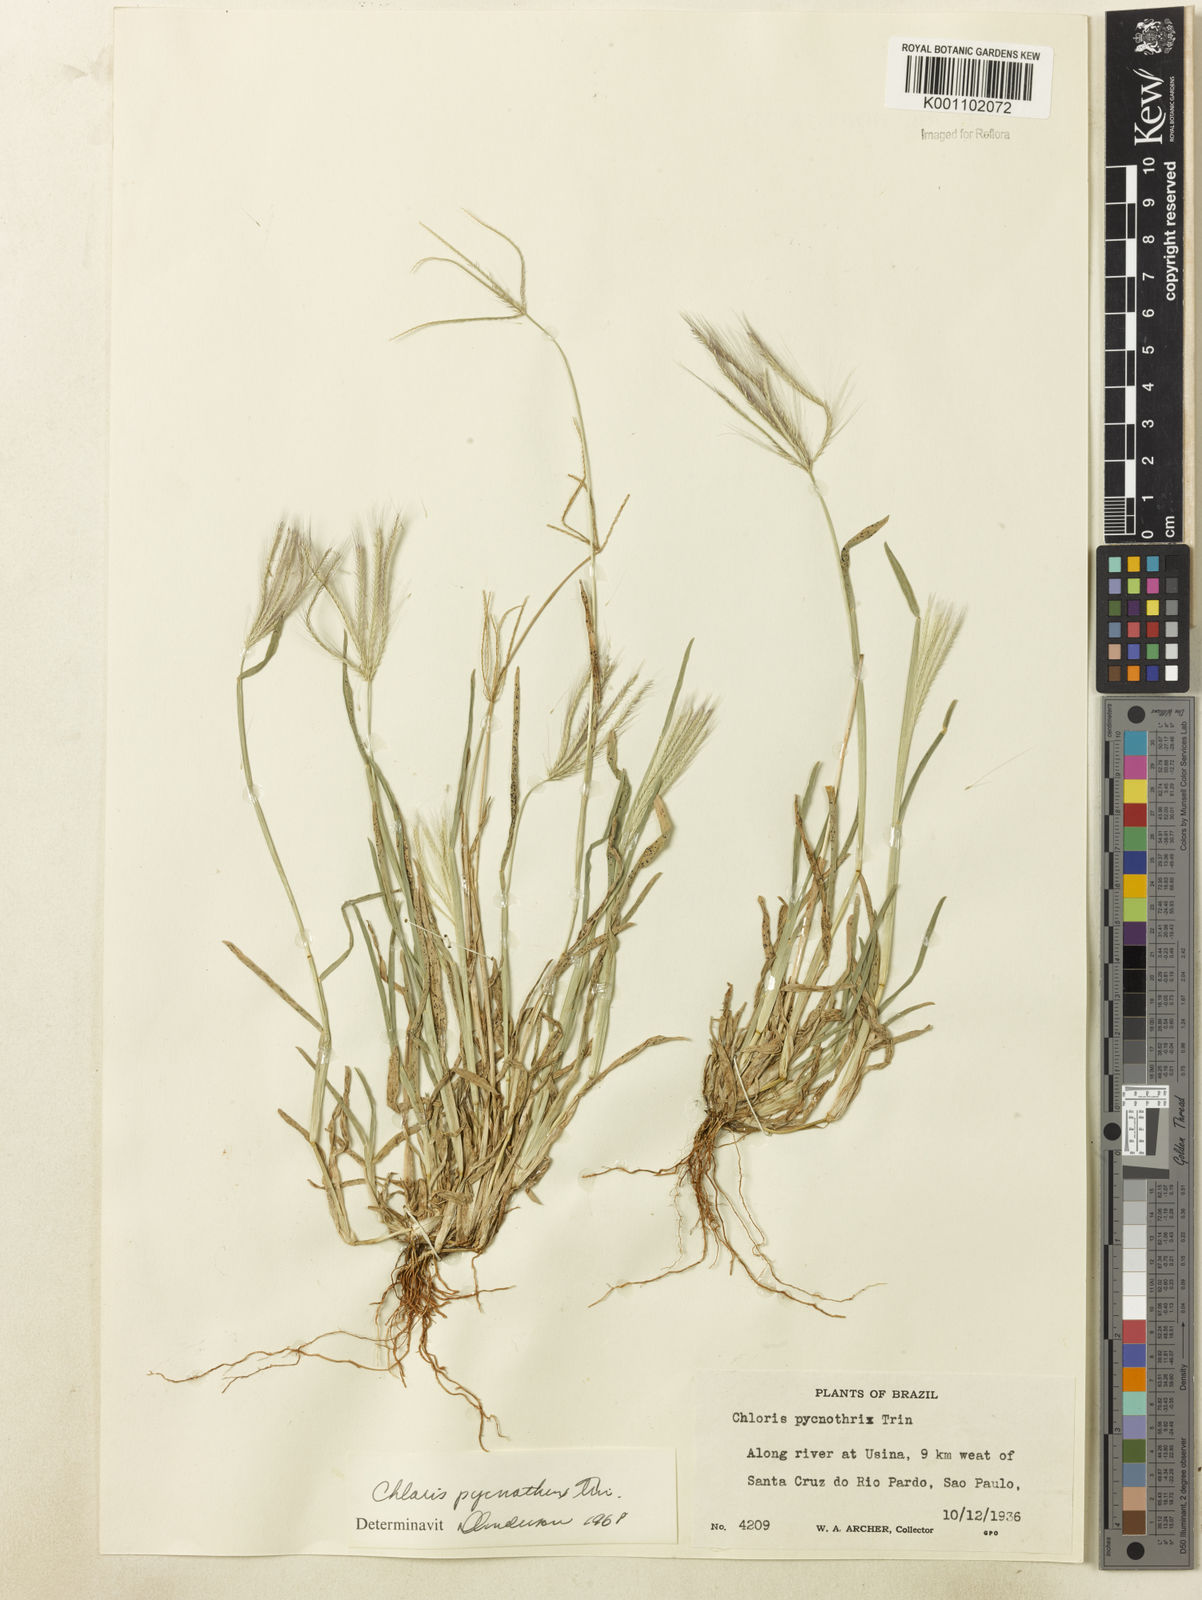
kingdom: Plantae
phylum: Tracheophyta
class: Liliopsida
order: Poales
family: Poaceae
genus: Chloris
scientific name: Chloris pycnothrix
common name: Spiderweb chloris
